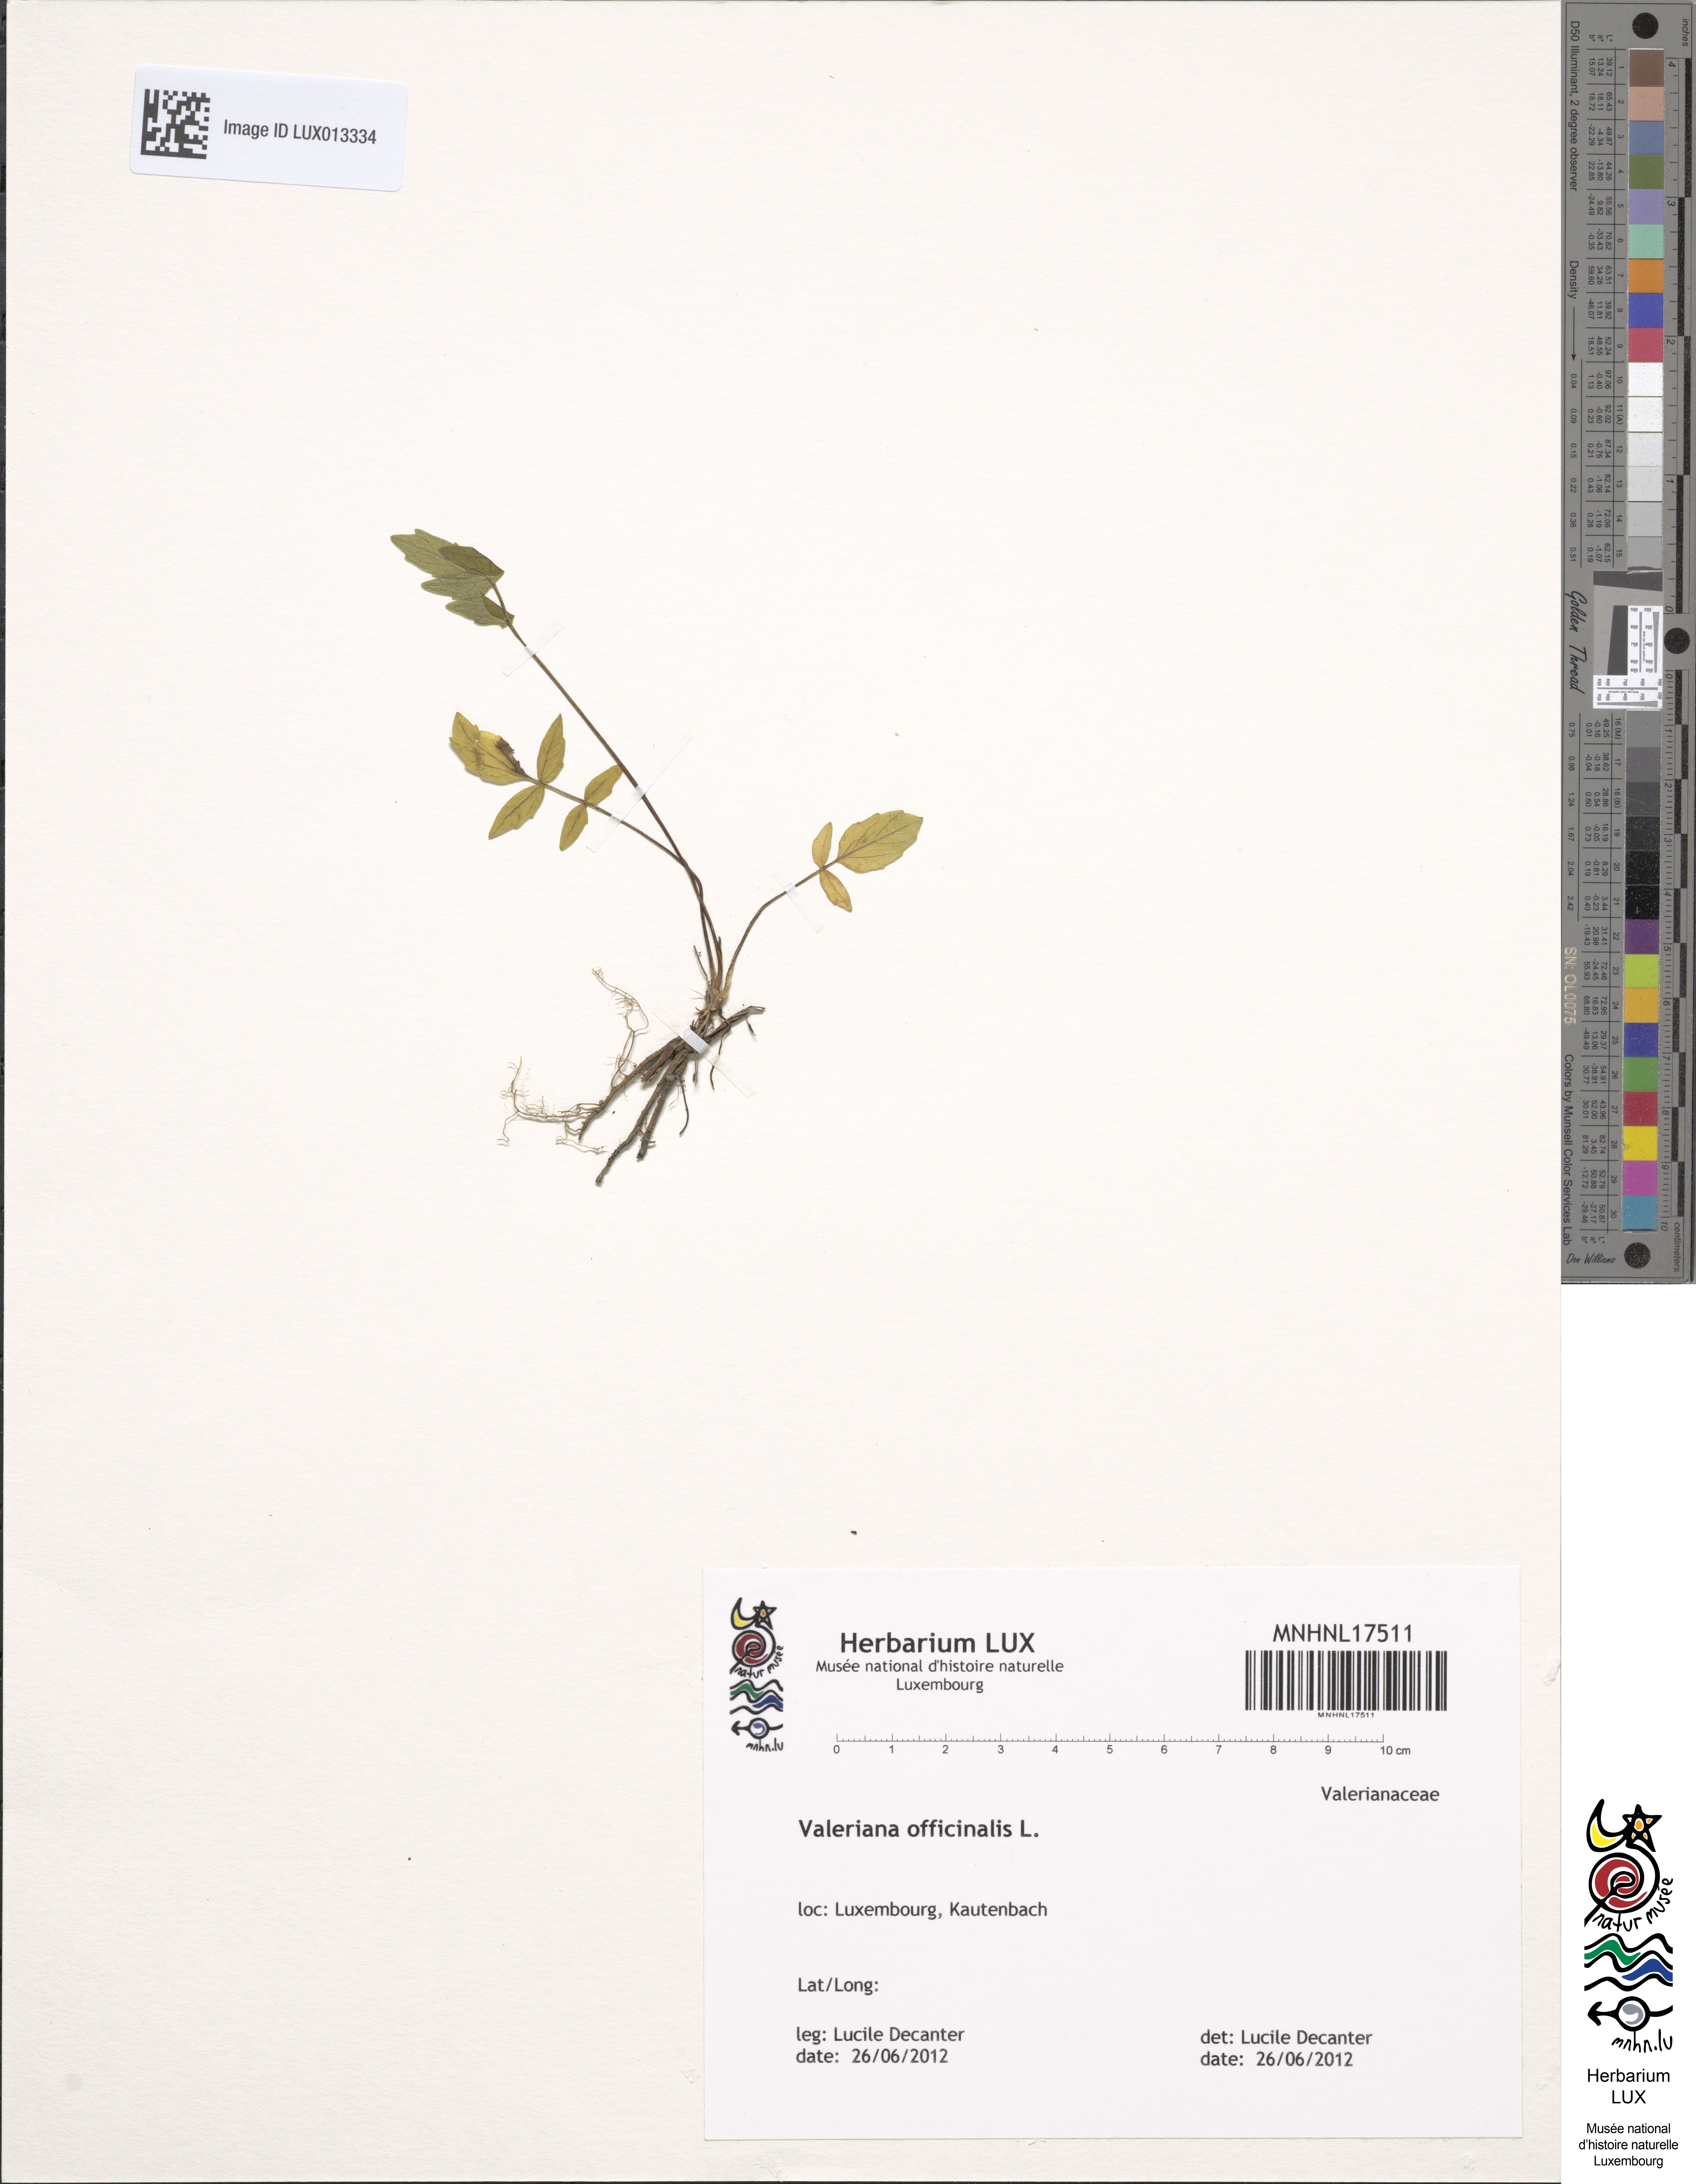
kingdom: Plantae
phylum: Tracheophyta
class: Magnoliopsida
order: Dipsacales
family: Caprifoliaceae
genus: Valeriana
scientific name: Valeriana officinalis
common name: Common valerian
